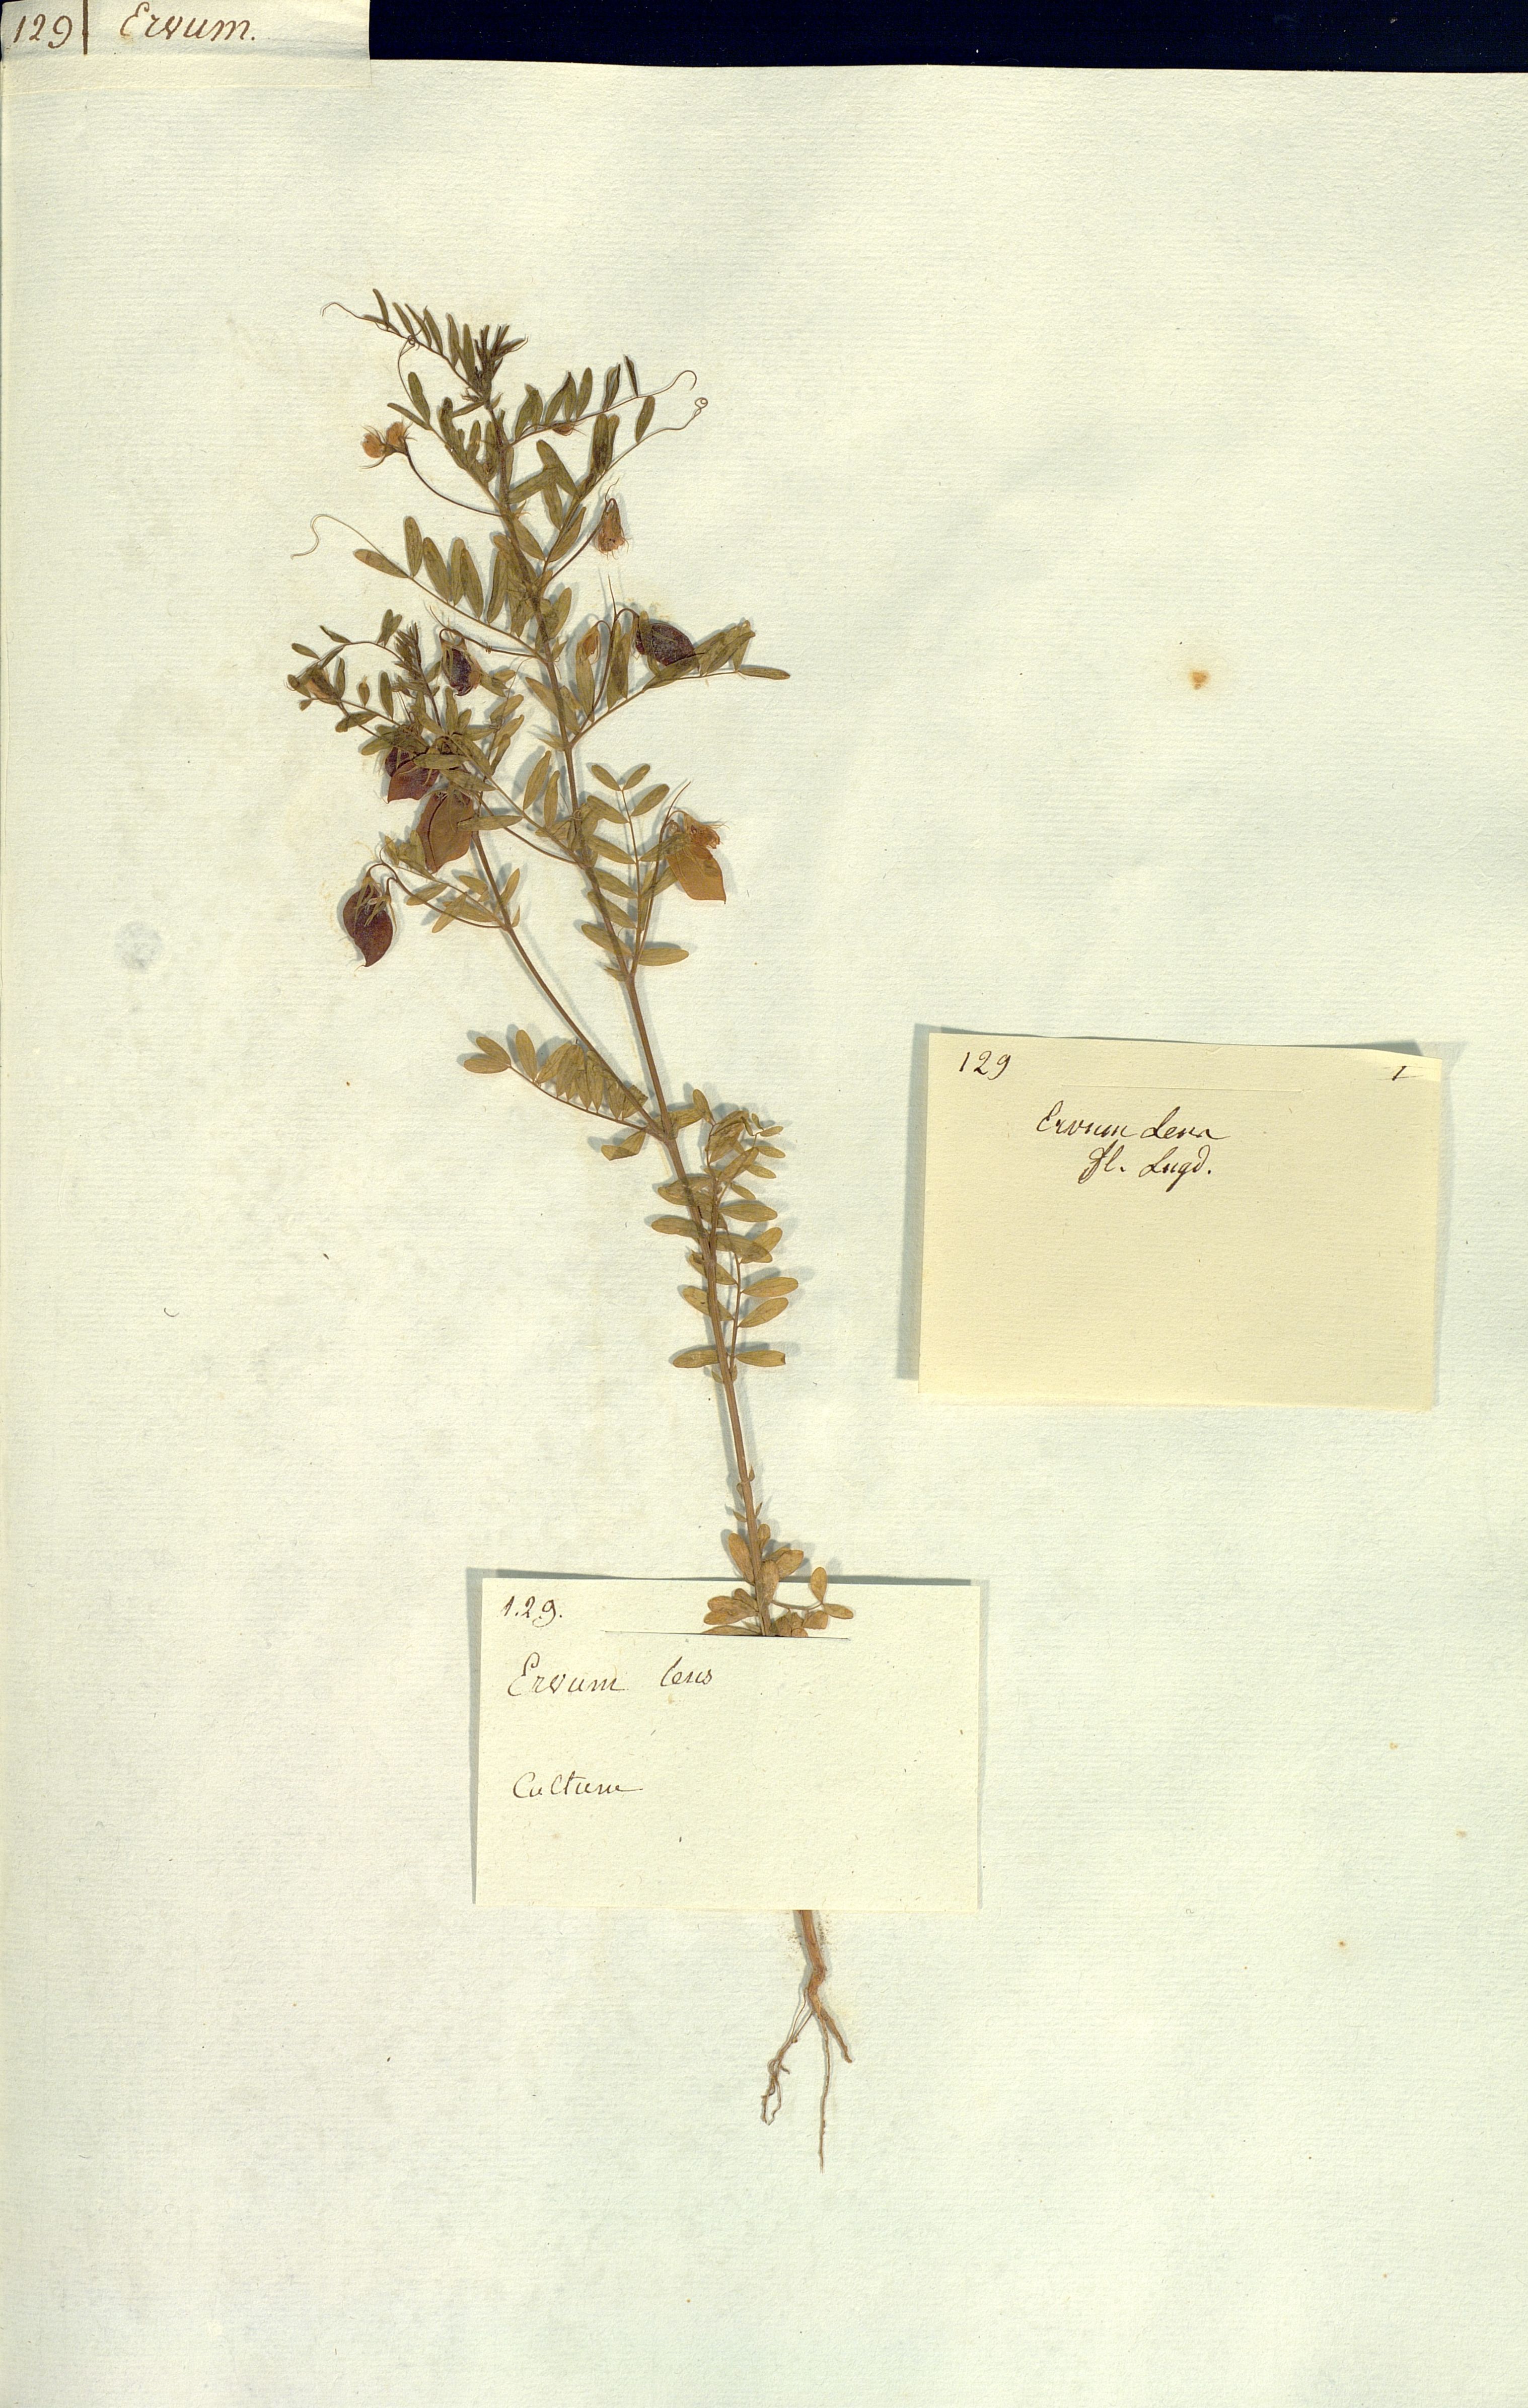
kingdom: Plantae
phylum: Tracheophyta
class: Magnoliopsida
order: Fabales
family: Fabaceae
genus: Vicia
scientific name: Vicia lens
